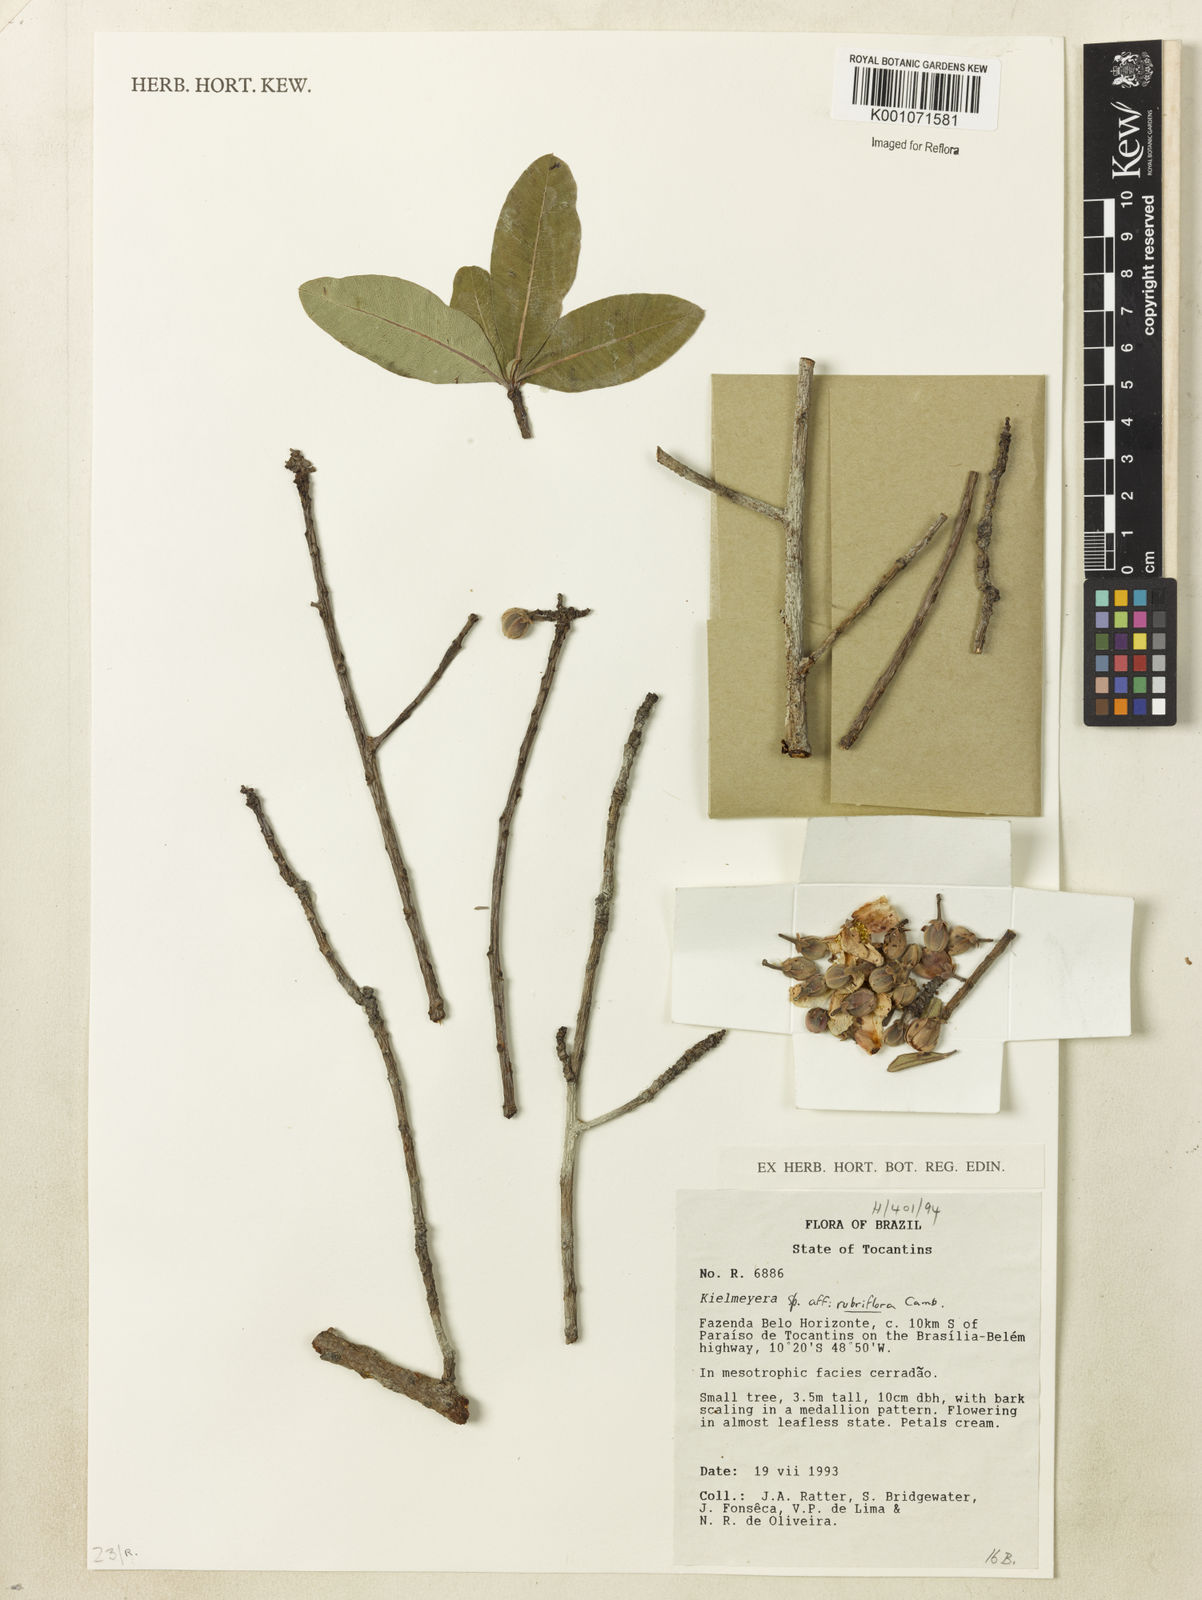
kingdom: Plantae
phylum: Tracheophyta
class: Magnoliopsida
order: Malpighiales
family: Calophyllaceae
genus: Kielmeyera
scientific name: Kielmeyera rubriflora
